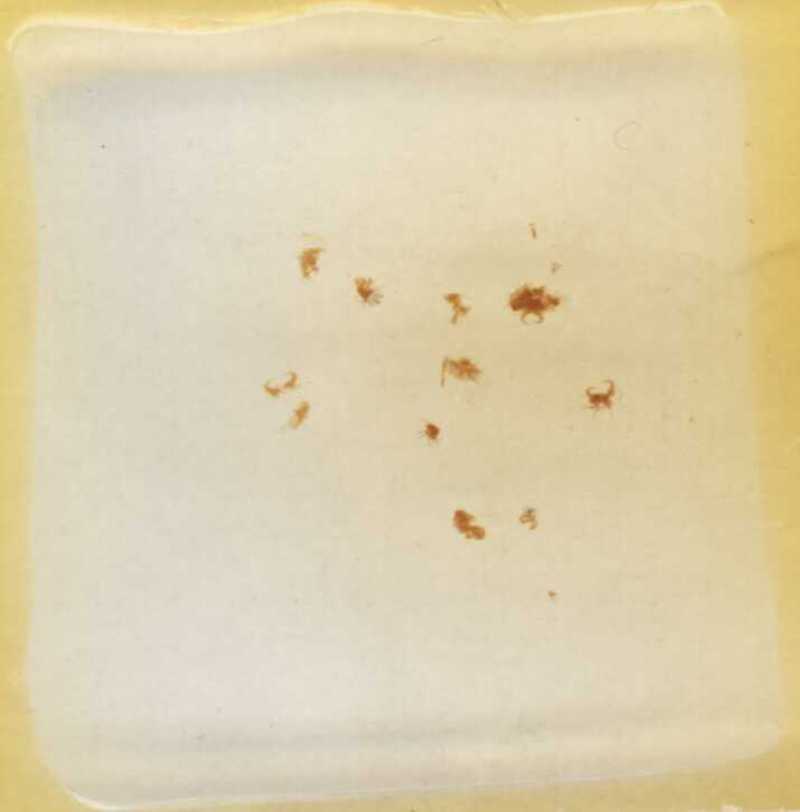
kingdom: Animalia
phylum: Arthropoda
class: Diplopoda
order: Polyxenida
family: Polyxenidae
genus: Propolyxenus
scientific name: Propolyxenus argentifer
